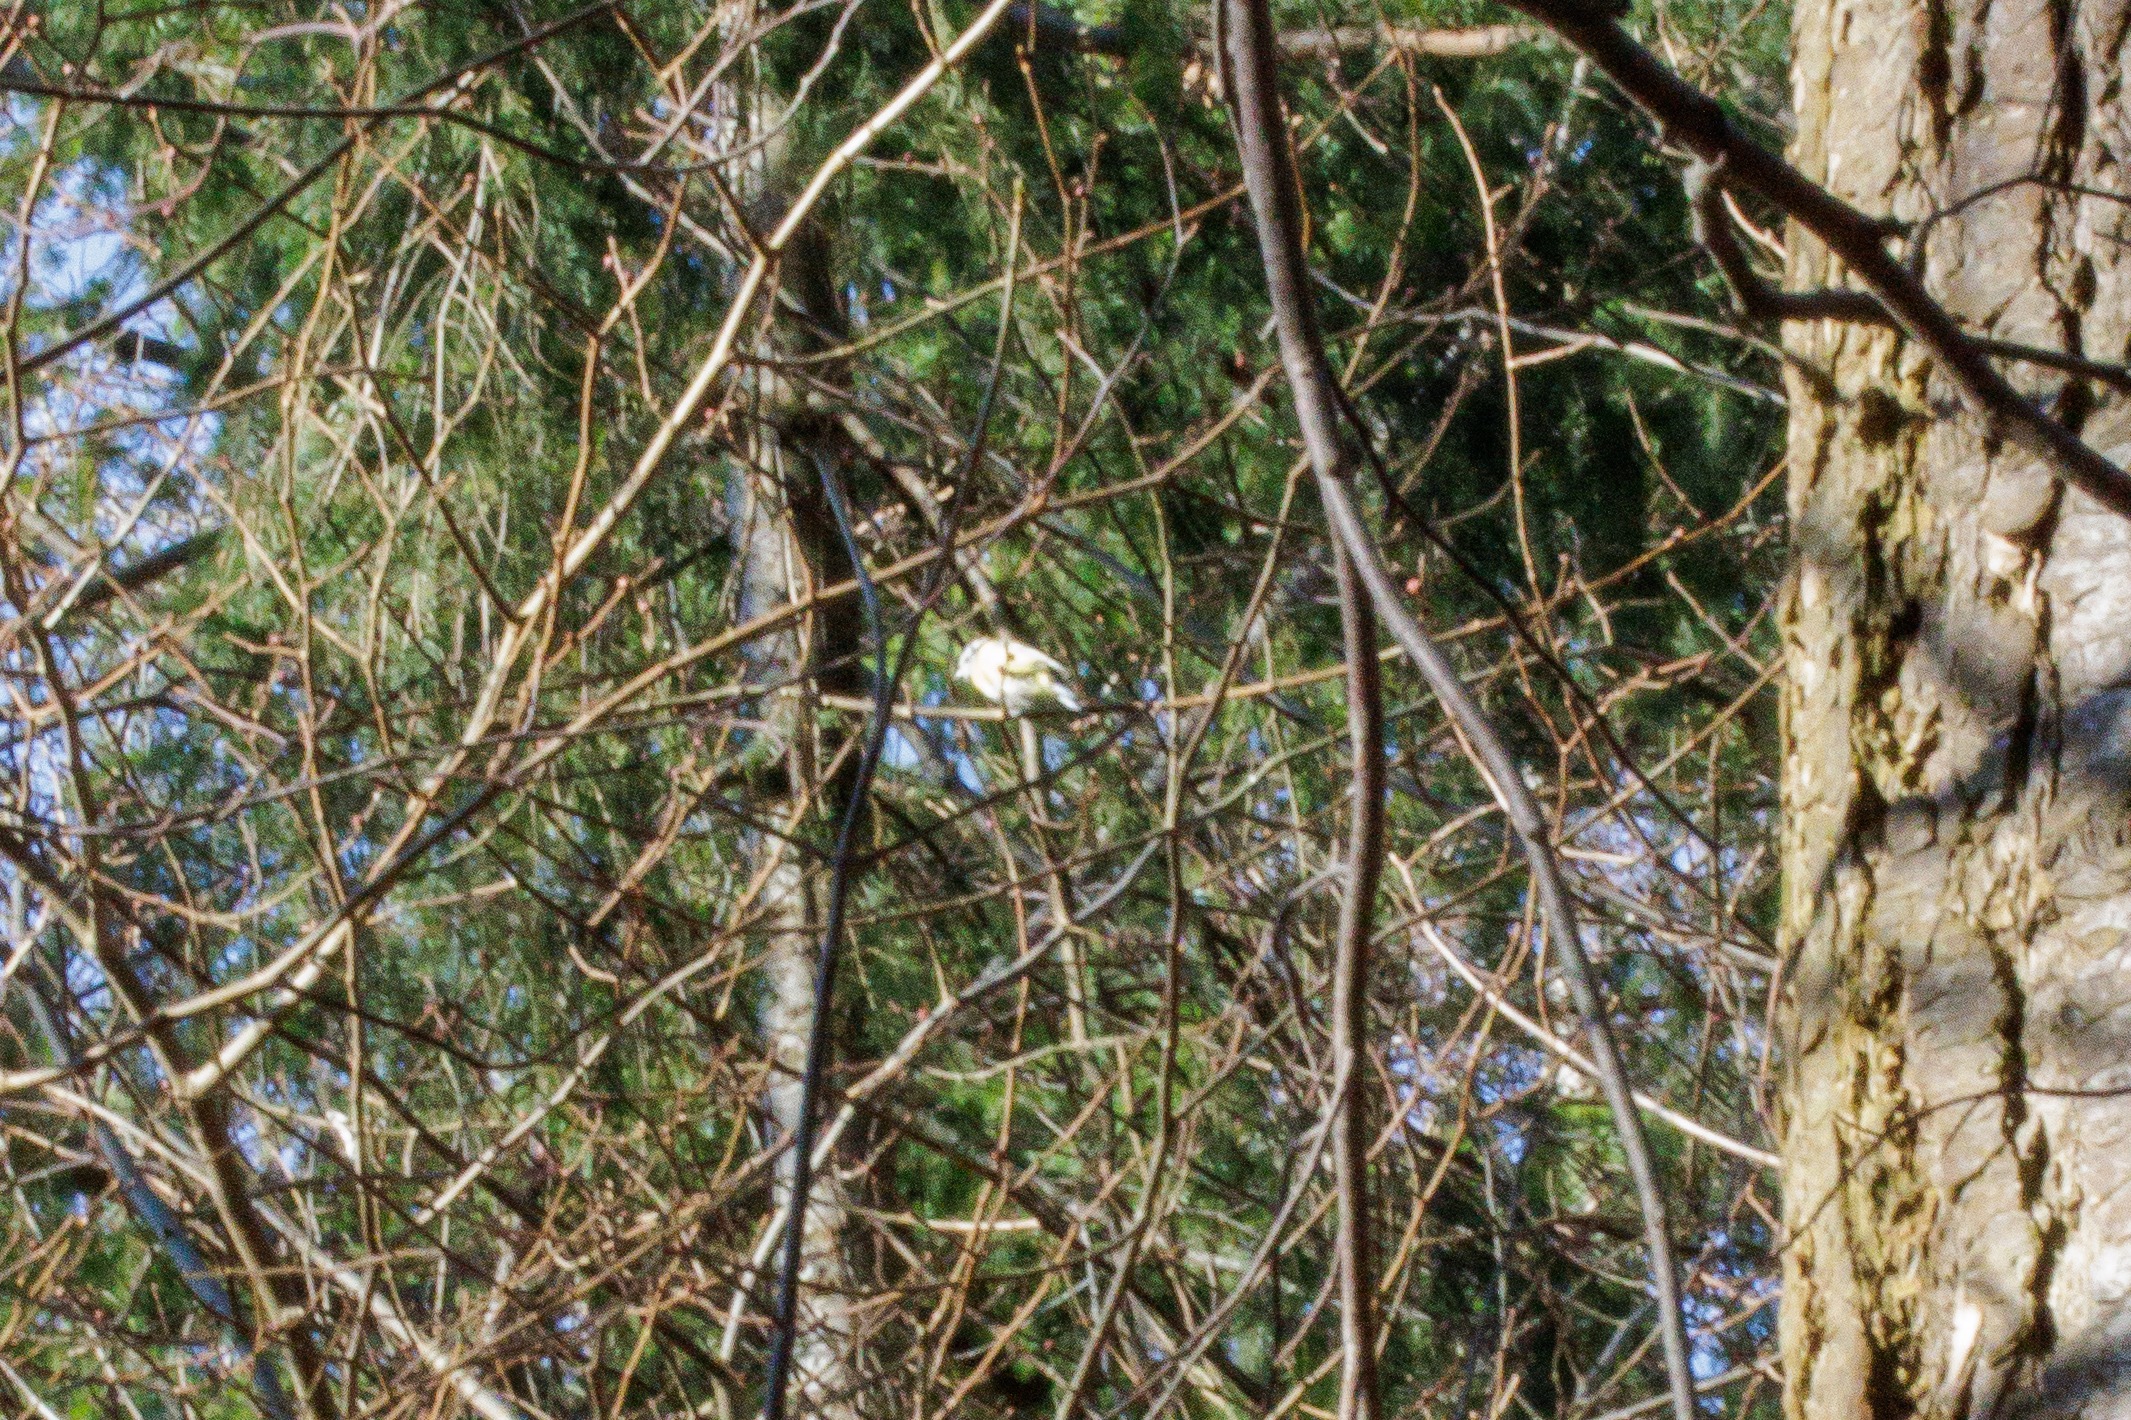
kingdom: Animalia
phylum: Chordata
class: Aves
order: Passeriformes
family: Paridae
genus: Cyanistes
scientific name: Cyanistes caeruleus
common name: Blåmejse
